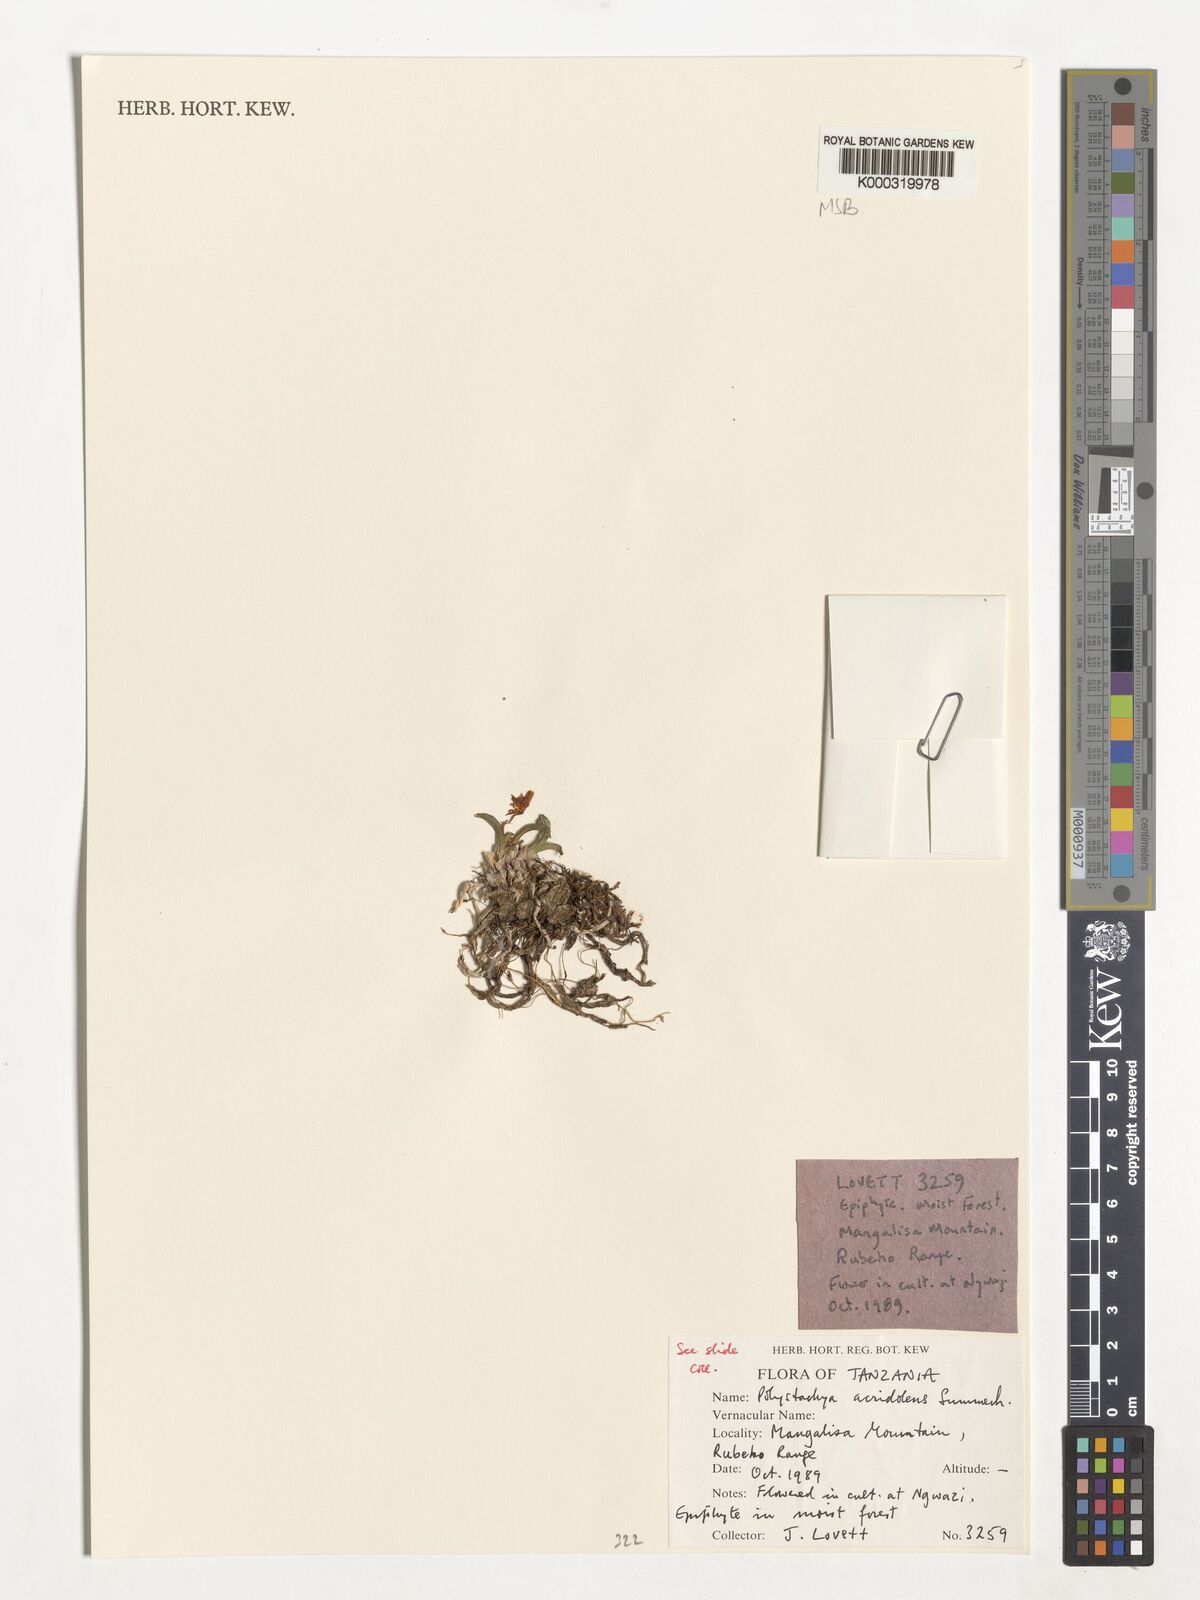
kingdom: Plantae
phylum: Tracheophyta
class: Liliopsida
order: Asparagales
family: Orchidaceae
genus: Polystachya
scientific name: Polystachya acridolens
